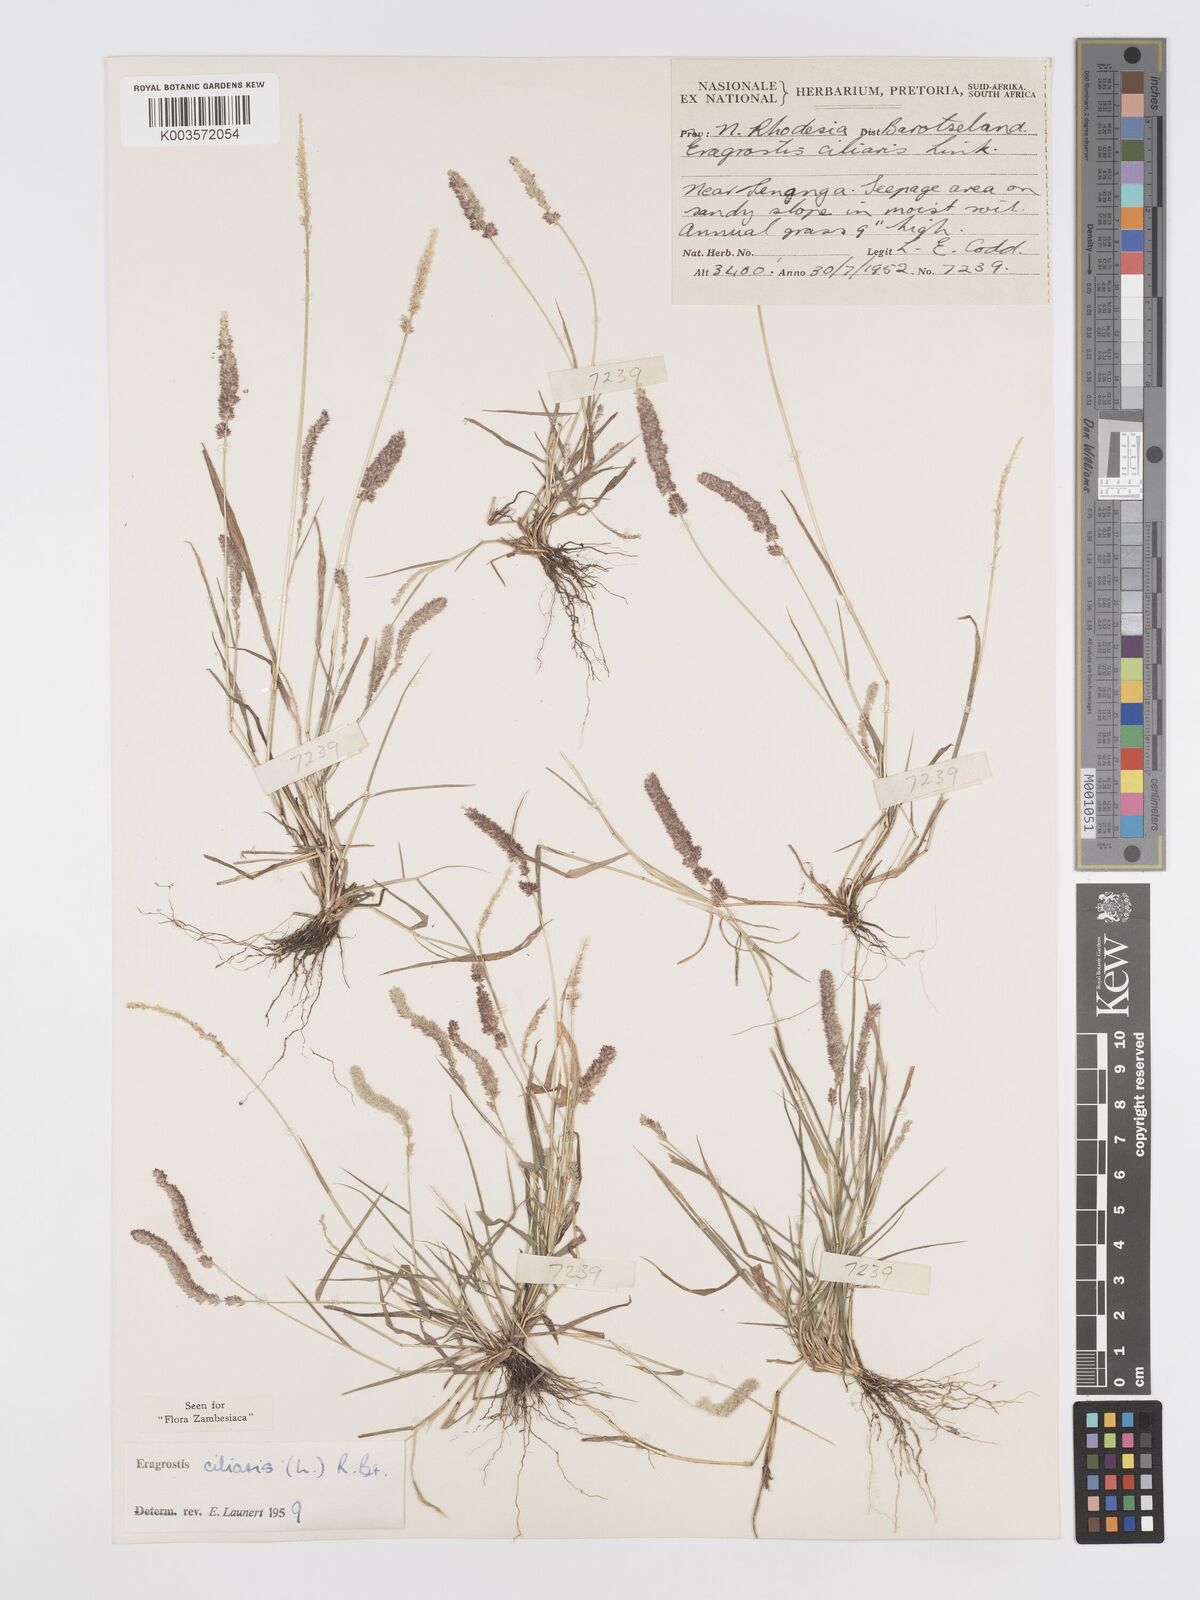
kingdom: Plantae
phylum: Tracheophyta
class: Liliopsida
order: Poales
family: Poaceae
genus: Eragrostis
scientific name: Eragrostis ciliaris
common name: Gophertail lovegrass
